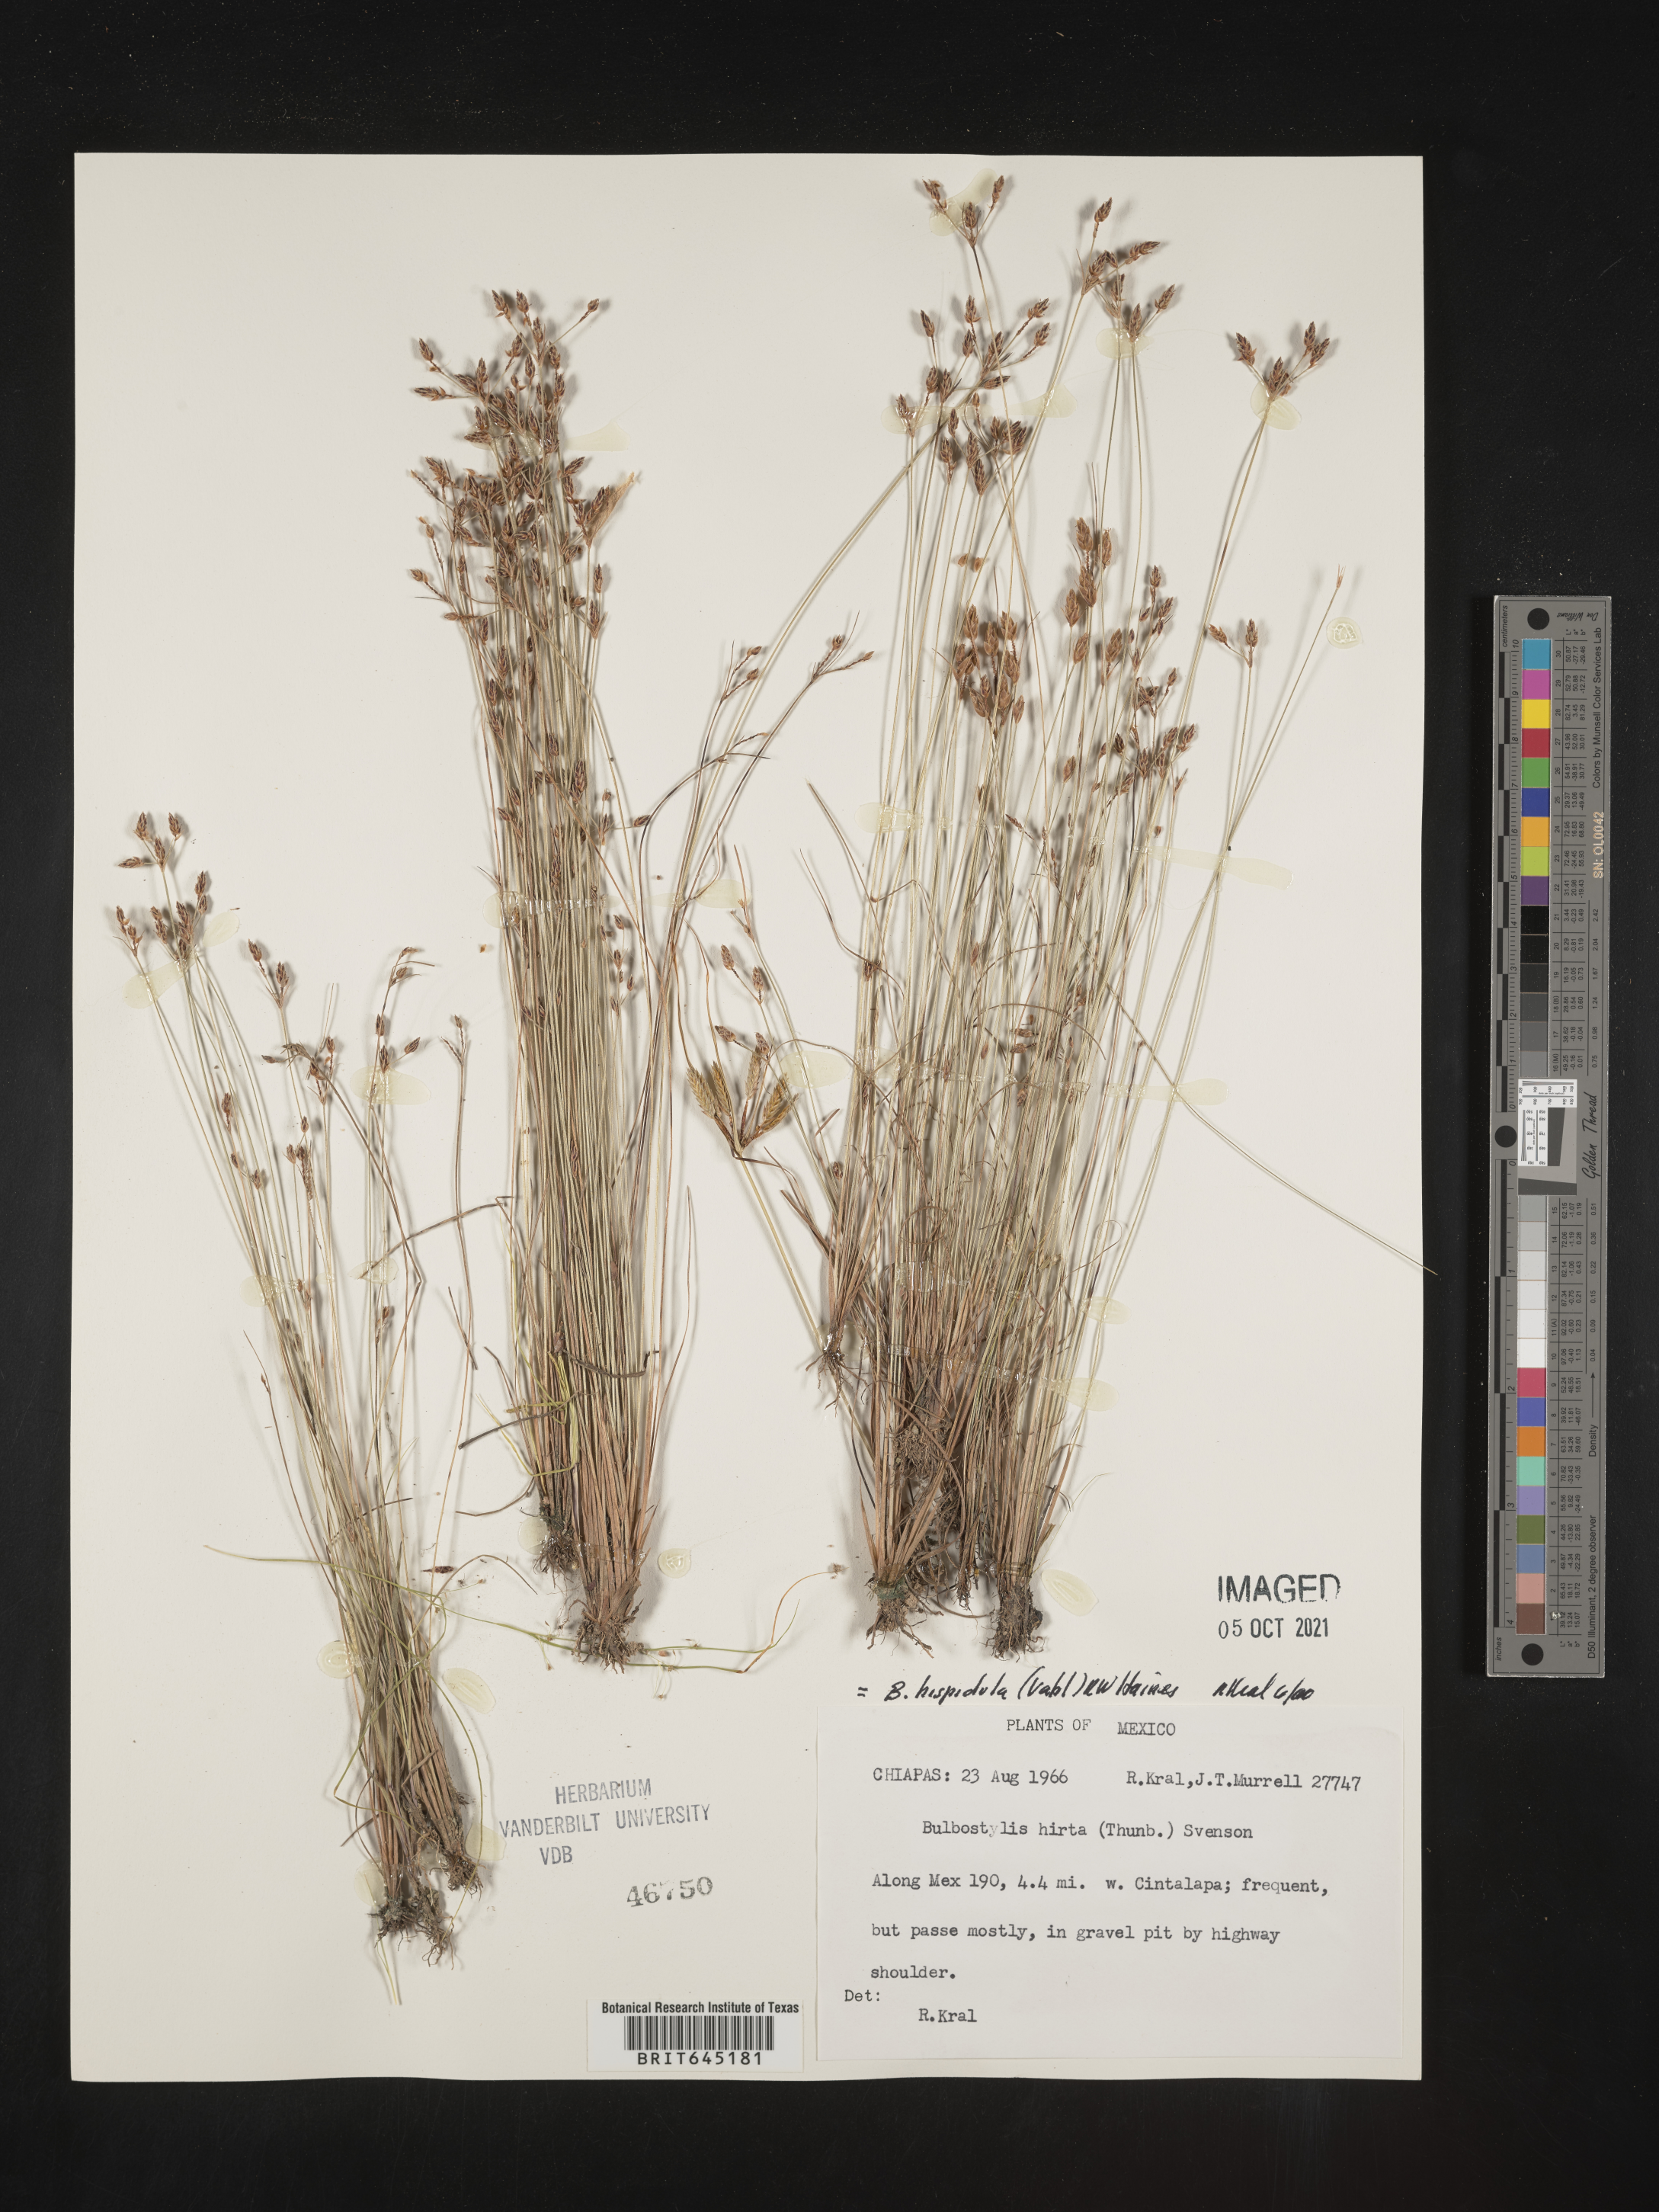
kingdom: Plantae
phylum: Tracheophyta
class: Liliopsida
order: Poales
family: Cyperaceae
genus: Bulbostylis
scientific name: Bulbostylis
